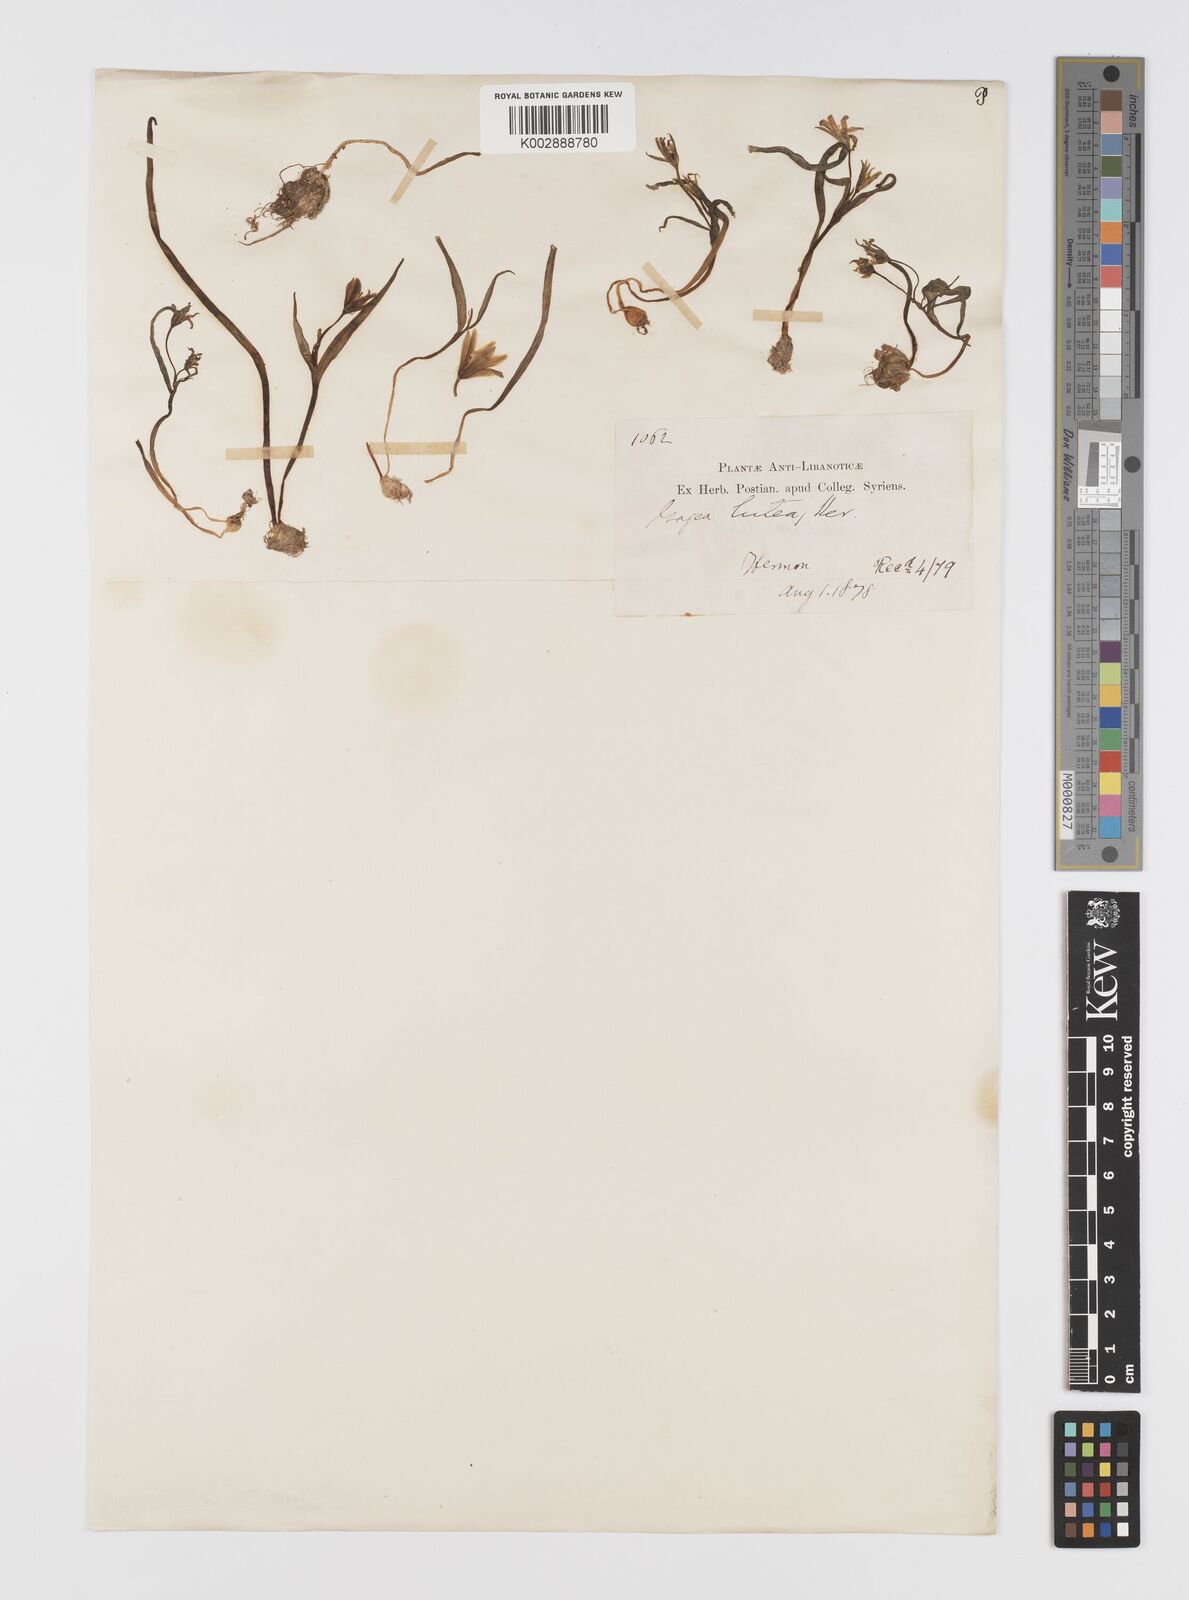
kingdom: Plantae
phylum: Tracheophyta
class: Liliopsida
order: Liliales
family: Liliaceae
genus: Gagea
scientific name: Gagea lutea
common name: Yellow star-of-bethlehem
